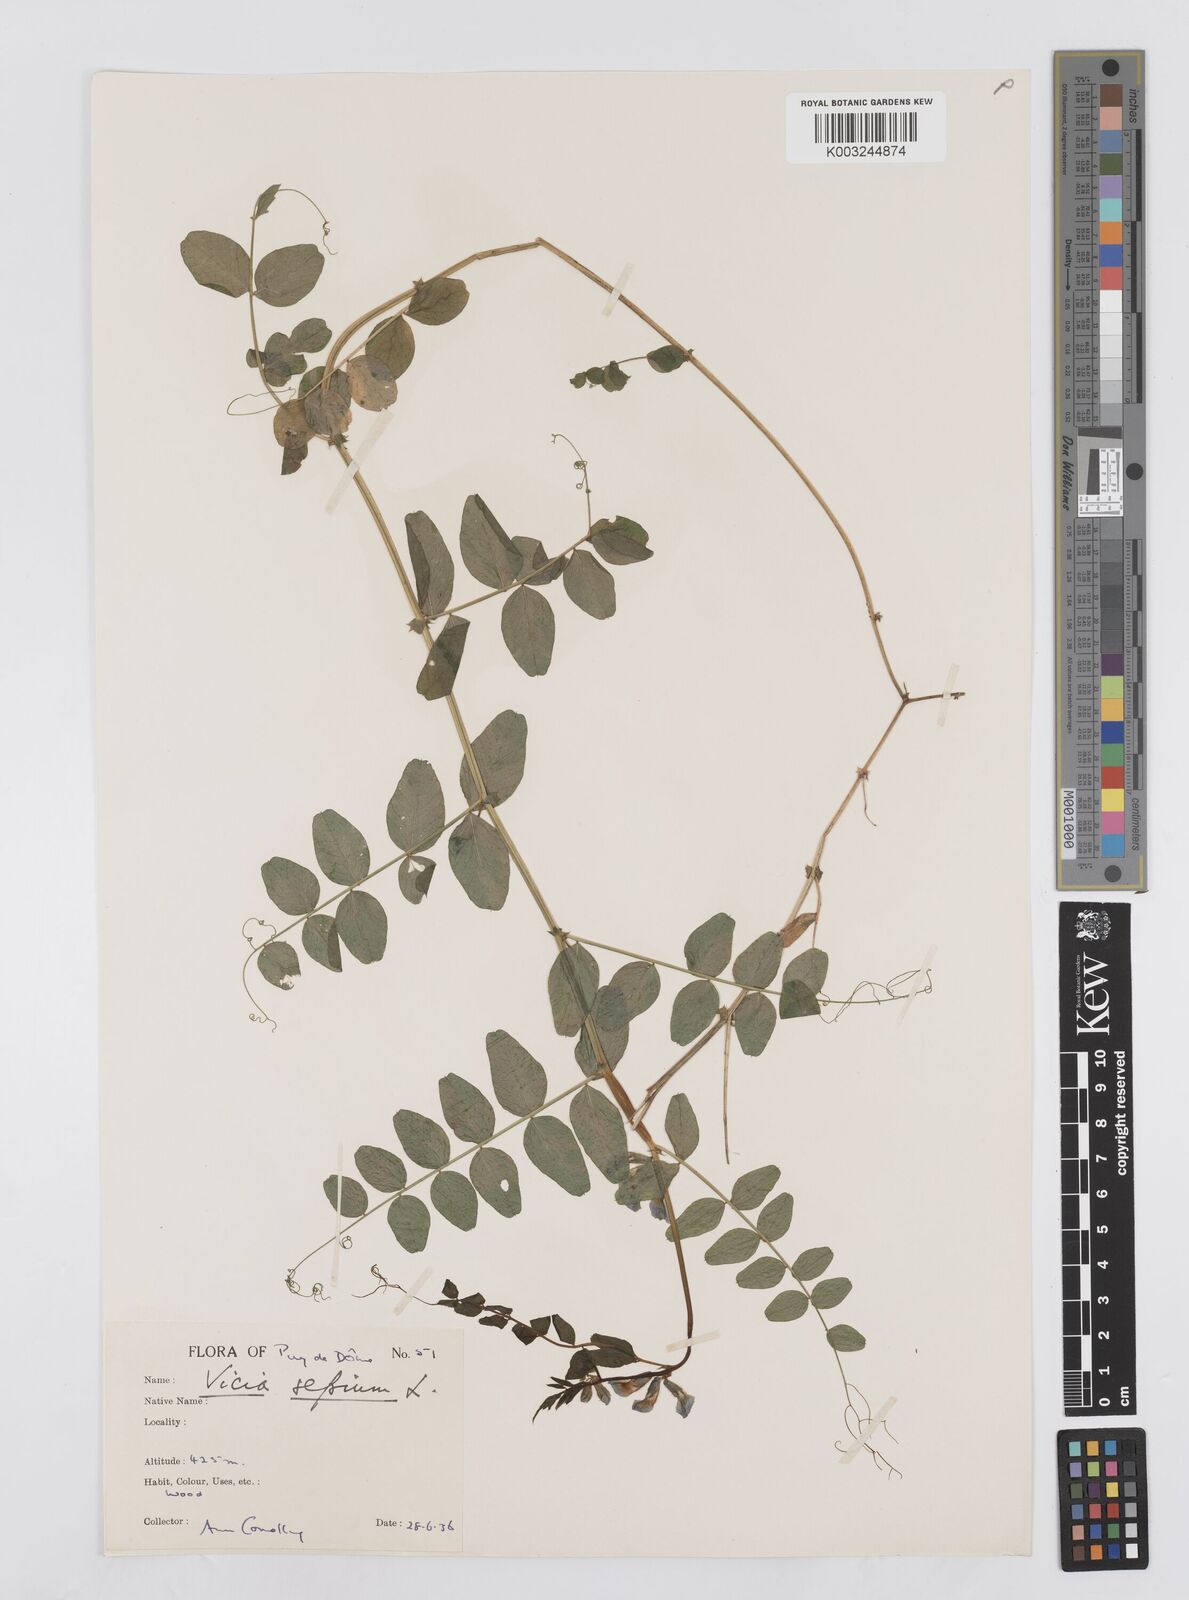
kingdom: Plantae
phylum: Tracheophyta
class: Magnoliopsida
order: Fabales
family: Fabaceae
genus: Vicia
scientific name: Vicia sepium
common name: Bush vetch
